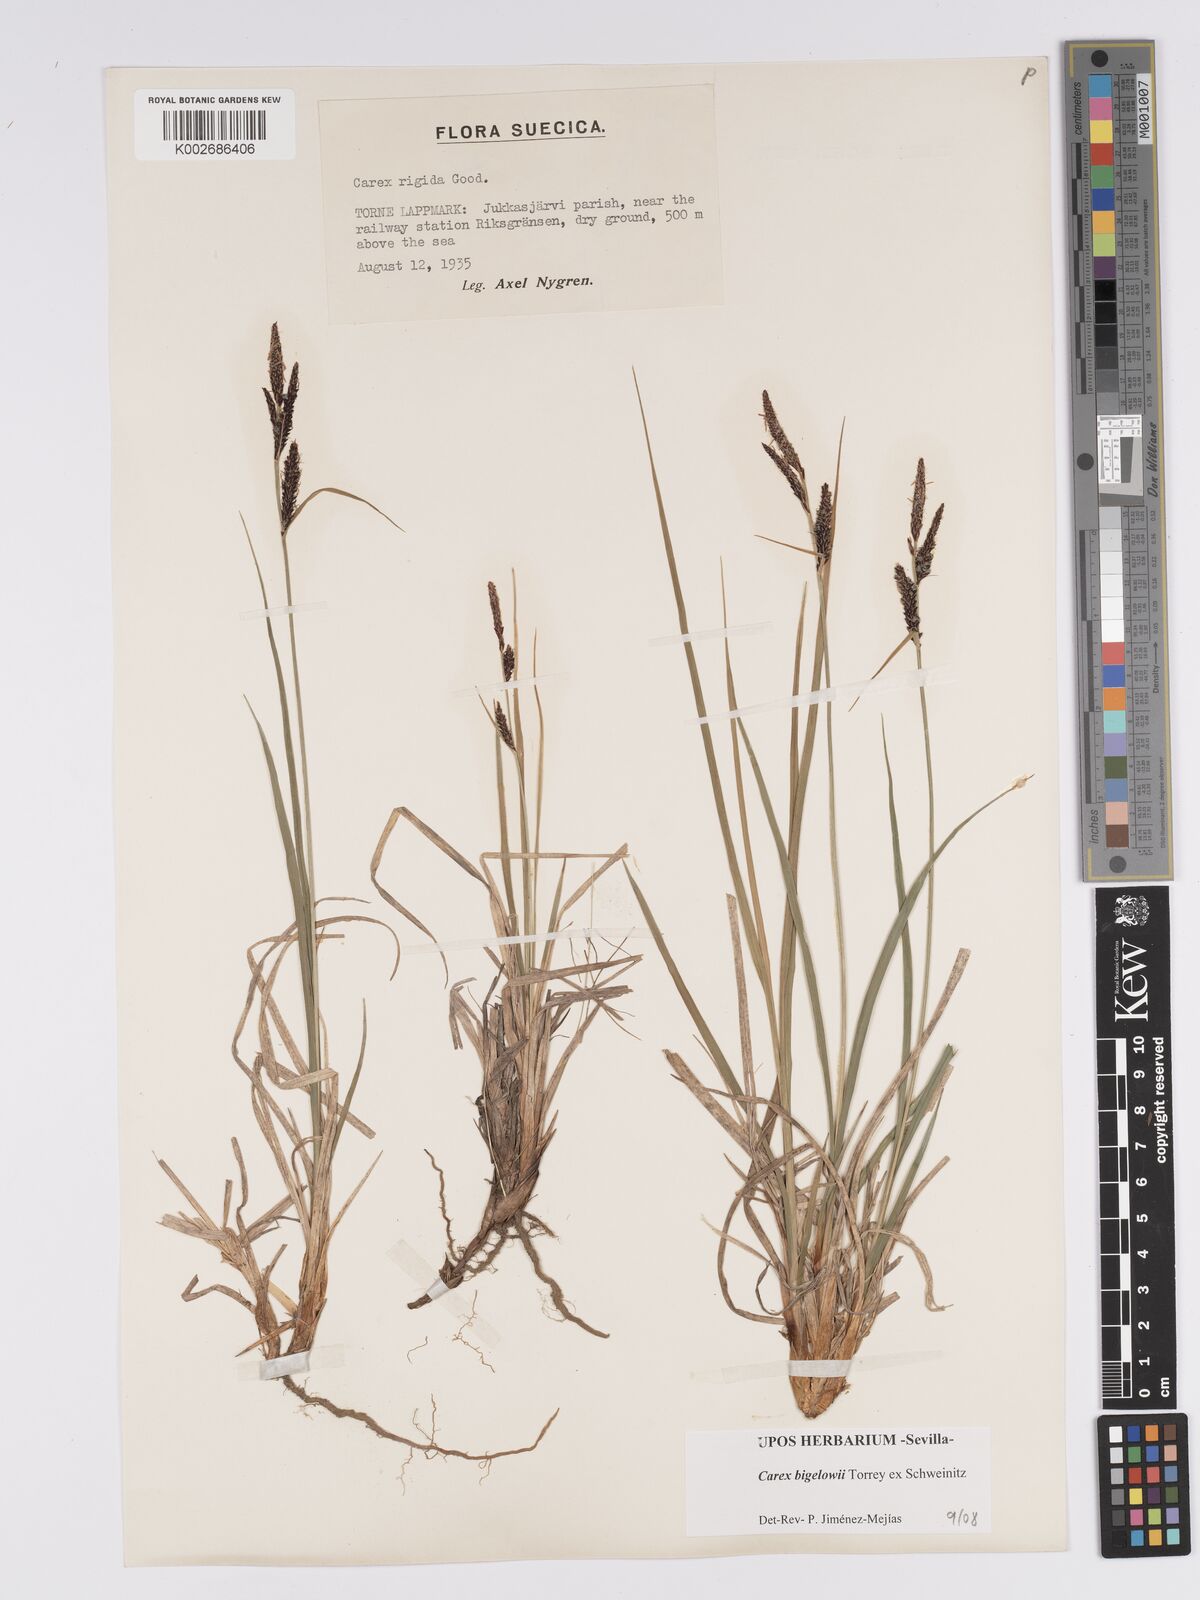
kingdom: Plantae
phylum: Tracheophyta
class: Liliopsida
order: Poales
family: Cyperaceae
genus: Carex
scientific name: Carex bigelowii
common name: Stiff sedge
